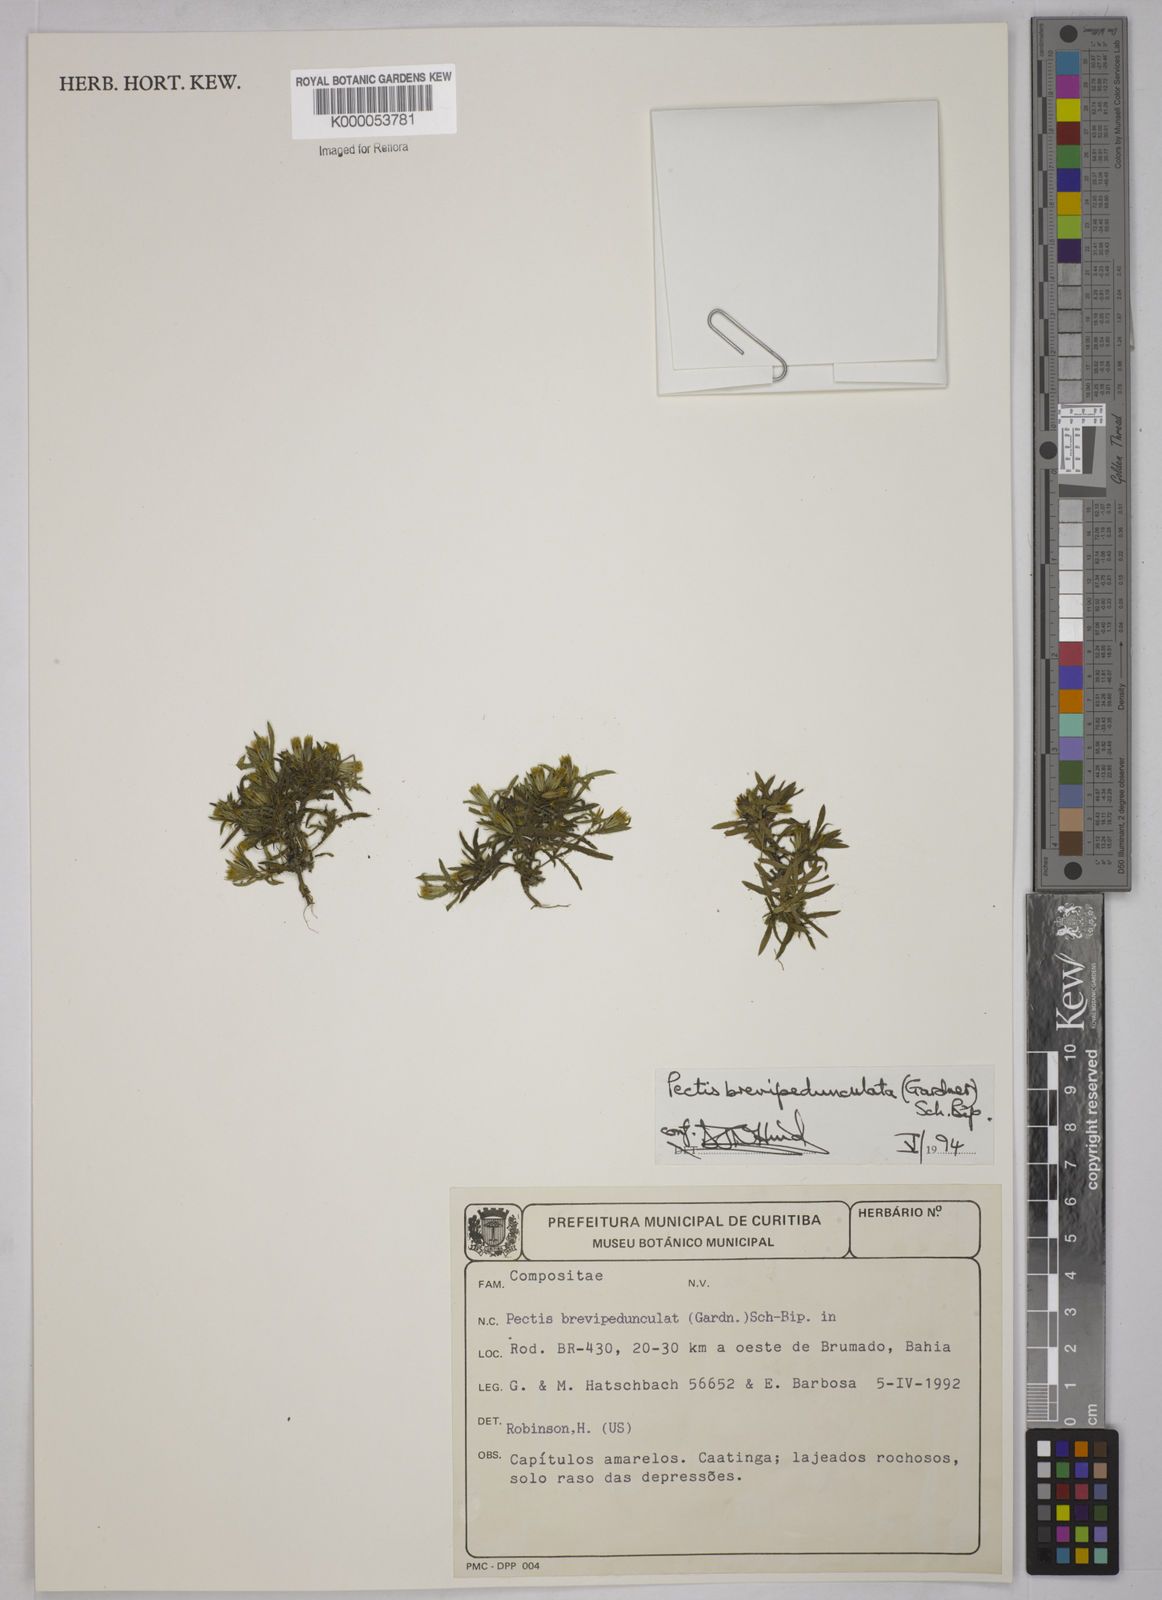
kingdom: Plantae
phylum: Tracheophyta
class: Magnoliopsida
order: Asterales
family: Asteraceae
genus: Pectis
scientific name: Pectis brevipedunculata
